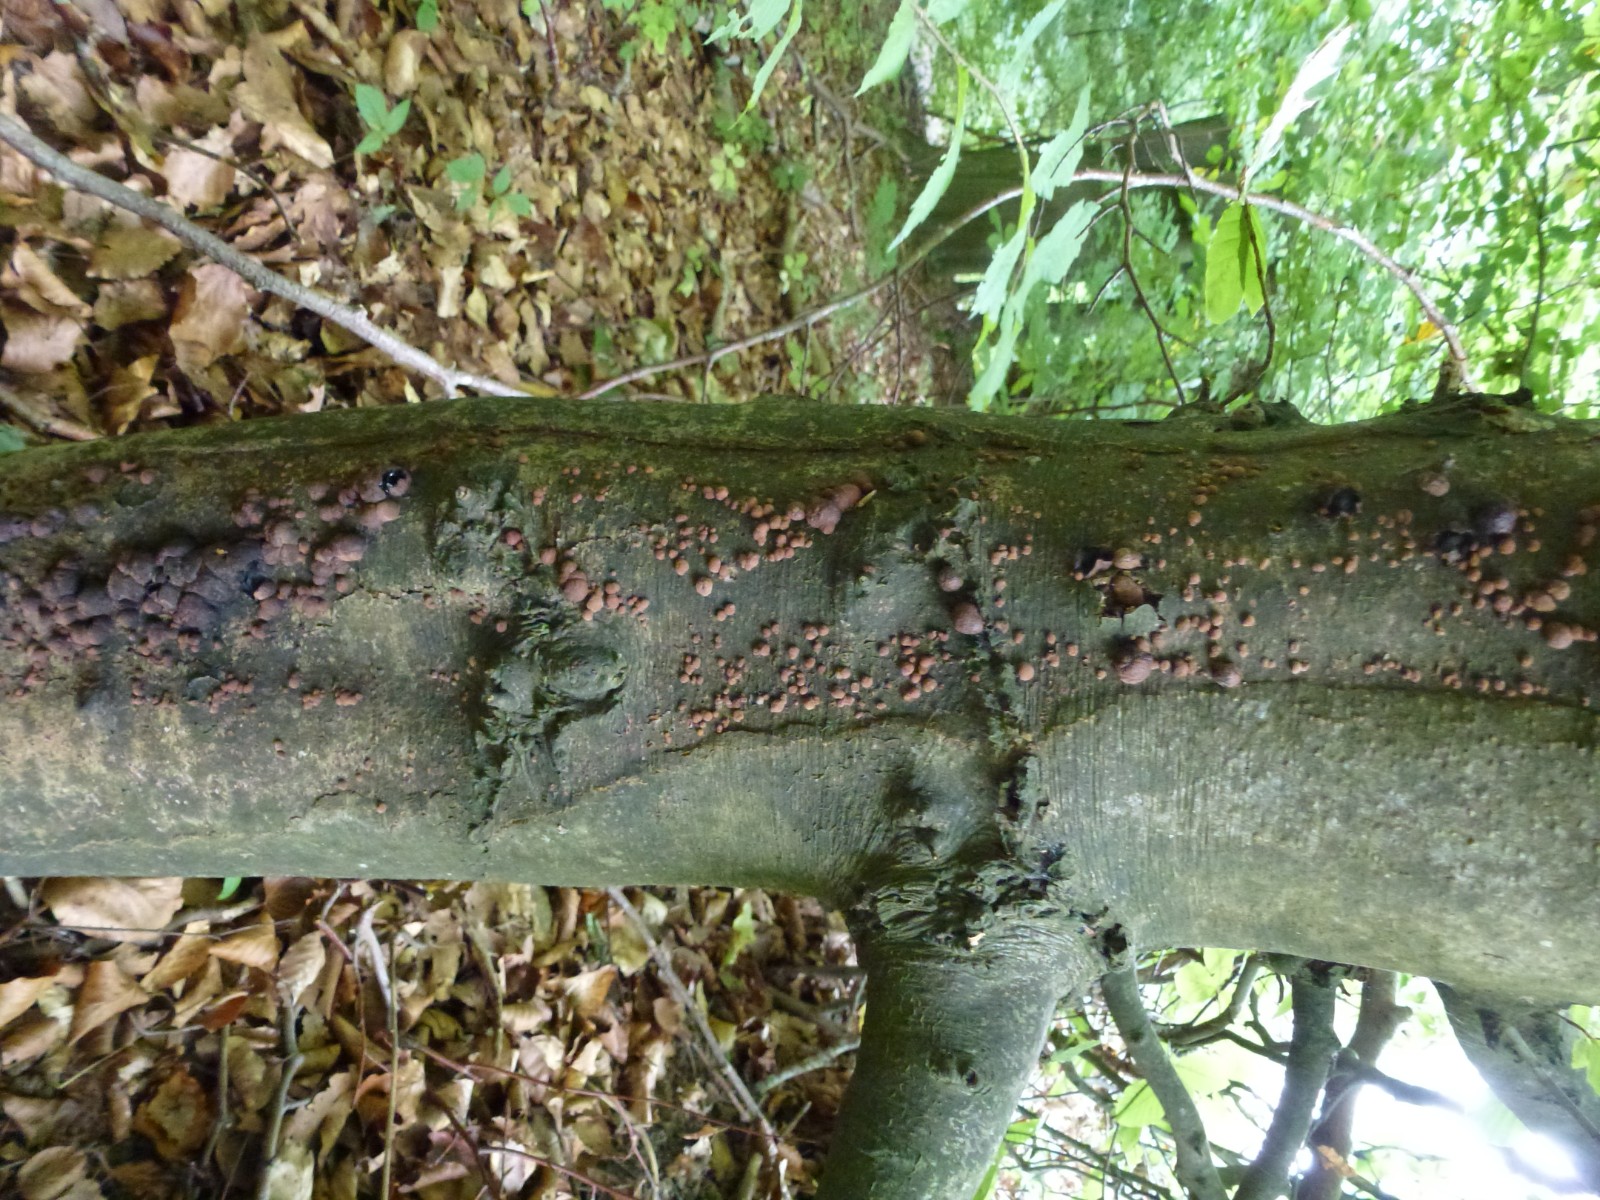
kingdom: Fungi
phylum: Ascomycota
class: Sordariomycetes
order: Xylariales
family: Hypoxylaceae
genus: Hypoxylon
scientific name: Hypoxylon fragiforme
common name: kuljordbær
